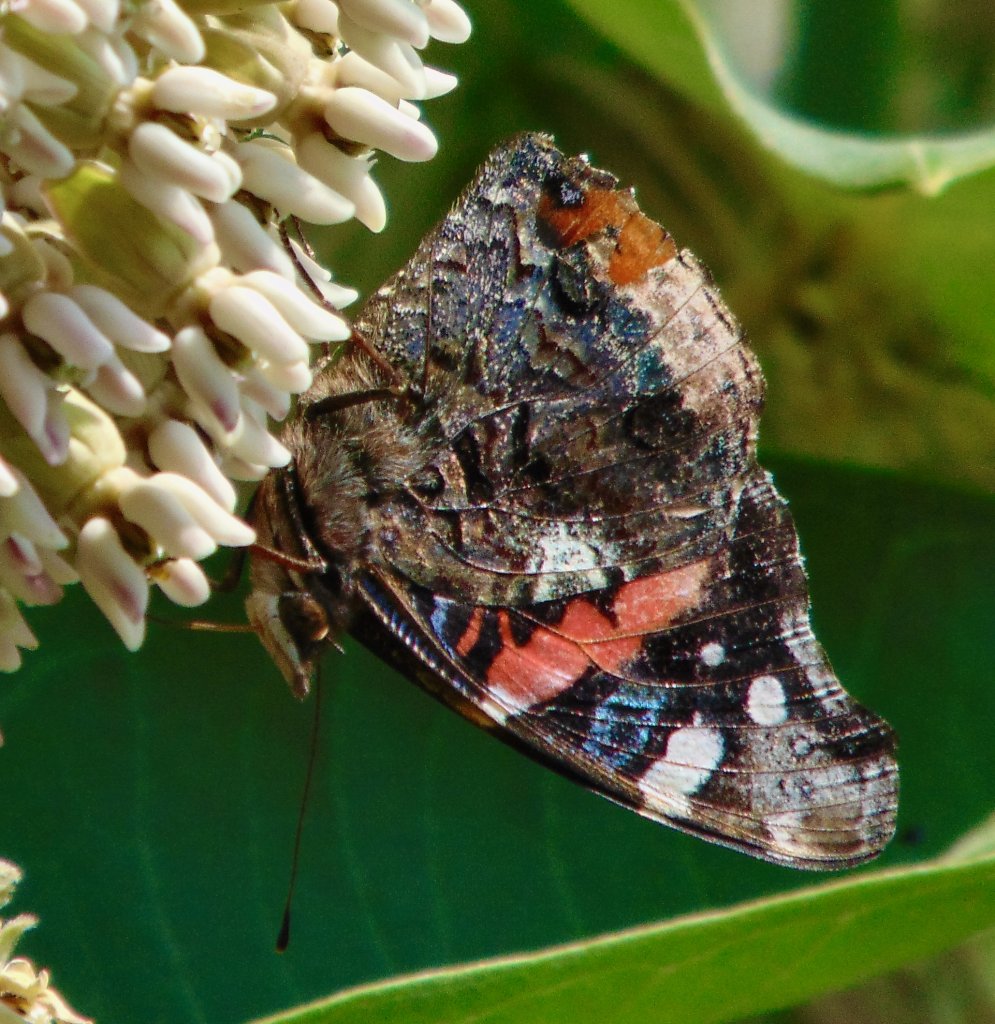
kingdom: Animalia
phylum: Arthropoda
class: Insecta
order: Lepidoptera
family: Nymphalidae
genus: Vanessa
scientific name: Vanessa atalanta
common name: Red Admiral
